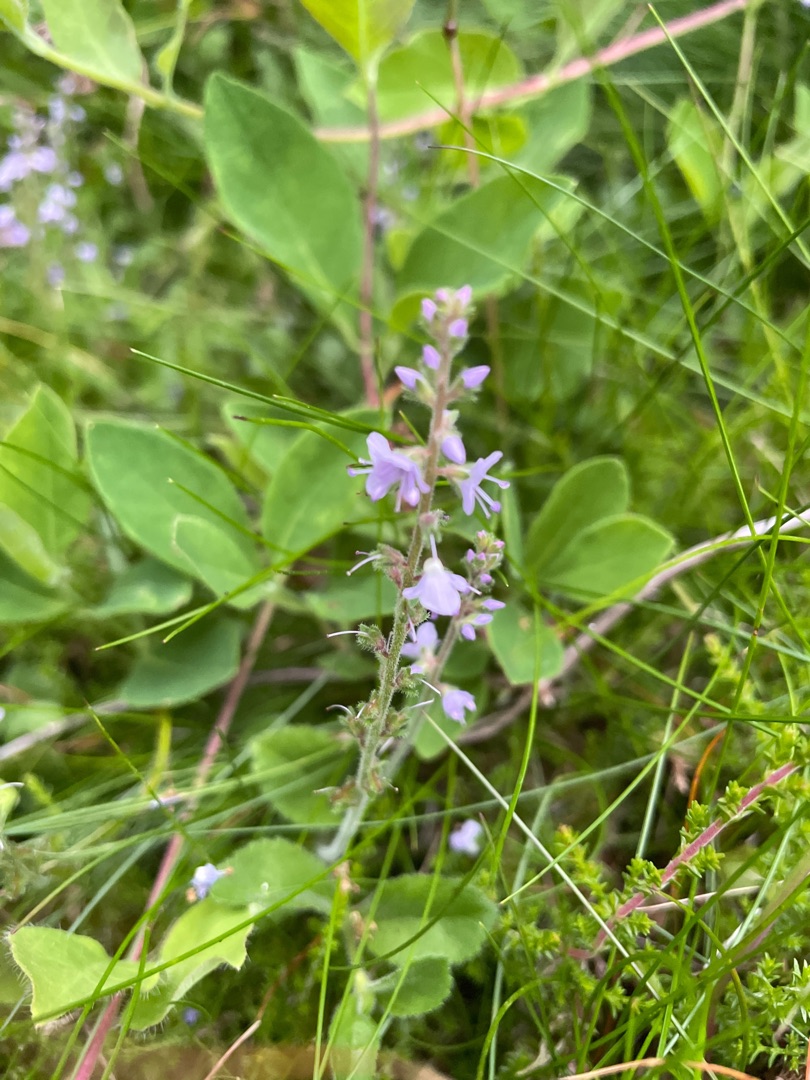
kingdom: Plantae
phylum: Tracheophyta
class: Magnoliopsida
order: Lamiales
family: Plantaginaceae
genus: Veronica
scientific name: Veronica officinalis
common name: Læge-ærenpris
